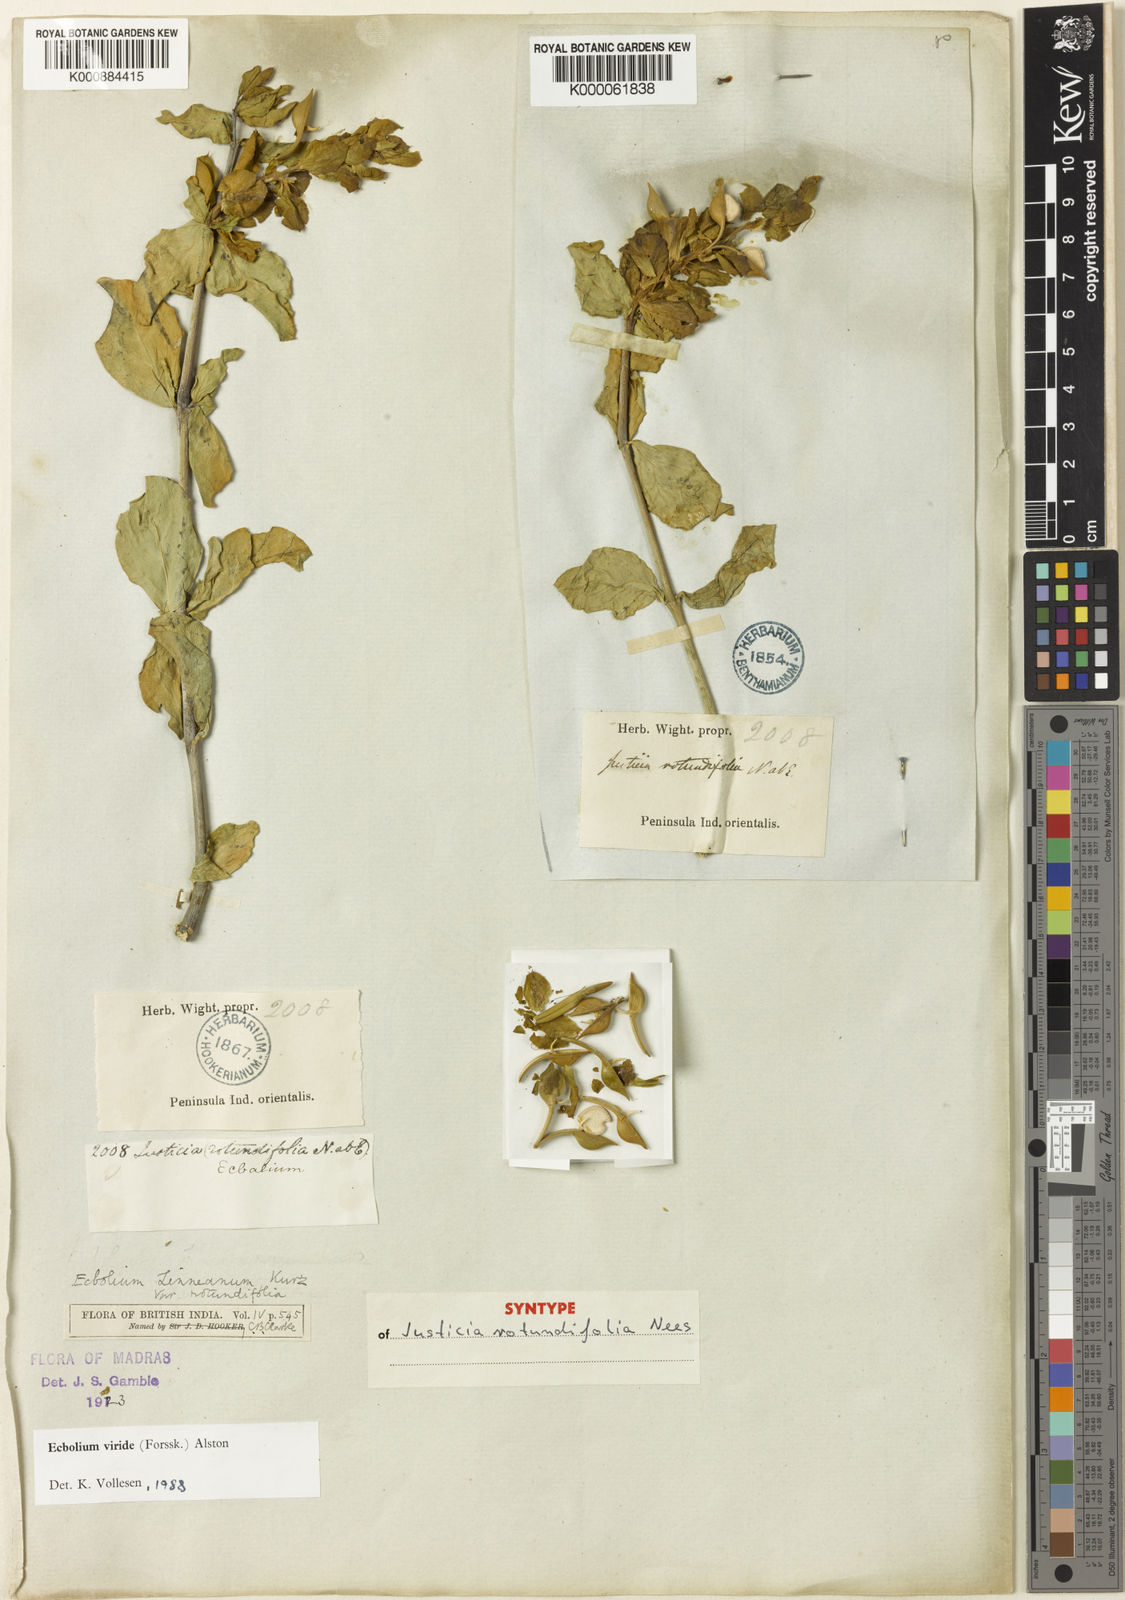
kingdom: Plantae
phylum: Tracheophyta
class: Magnoliopsida
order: Lamiales
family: Acanthaceae
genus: Ecbolium
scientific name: Ecbolium viride
